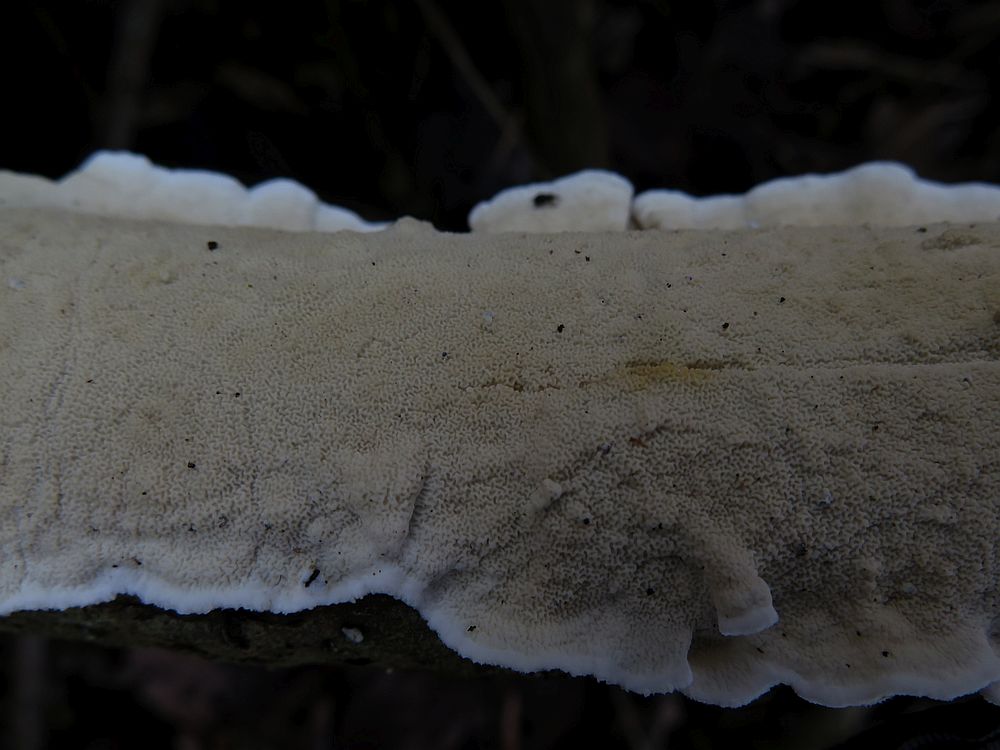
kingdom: Fungi
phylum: Basidiomycota
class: Agaricomycetes
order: Polyporales
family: Irpicaceae
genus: Byssomerulius
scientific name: Byssomerulius corium
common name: læder-åresvamp
